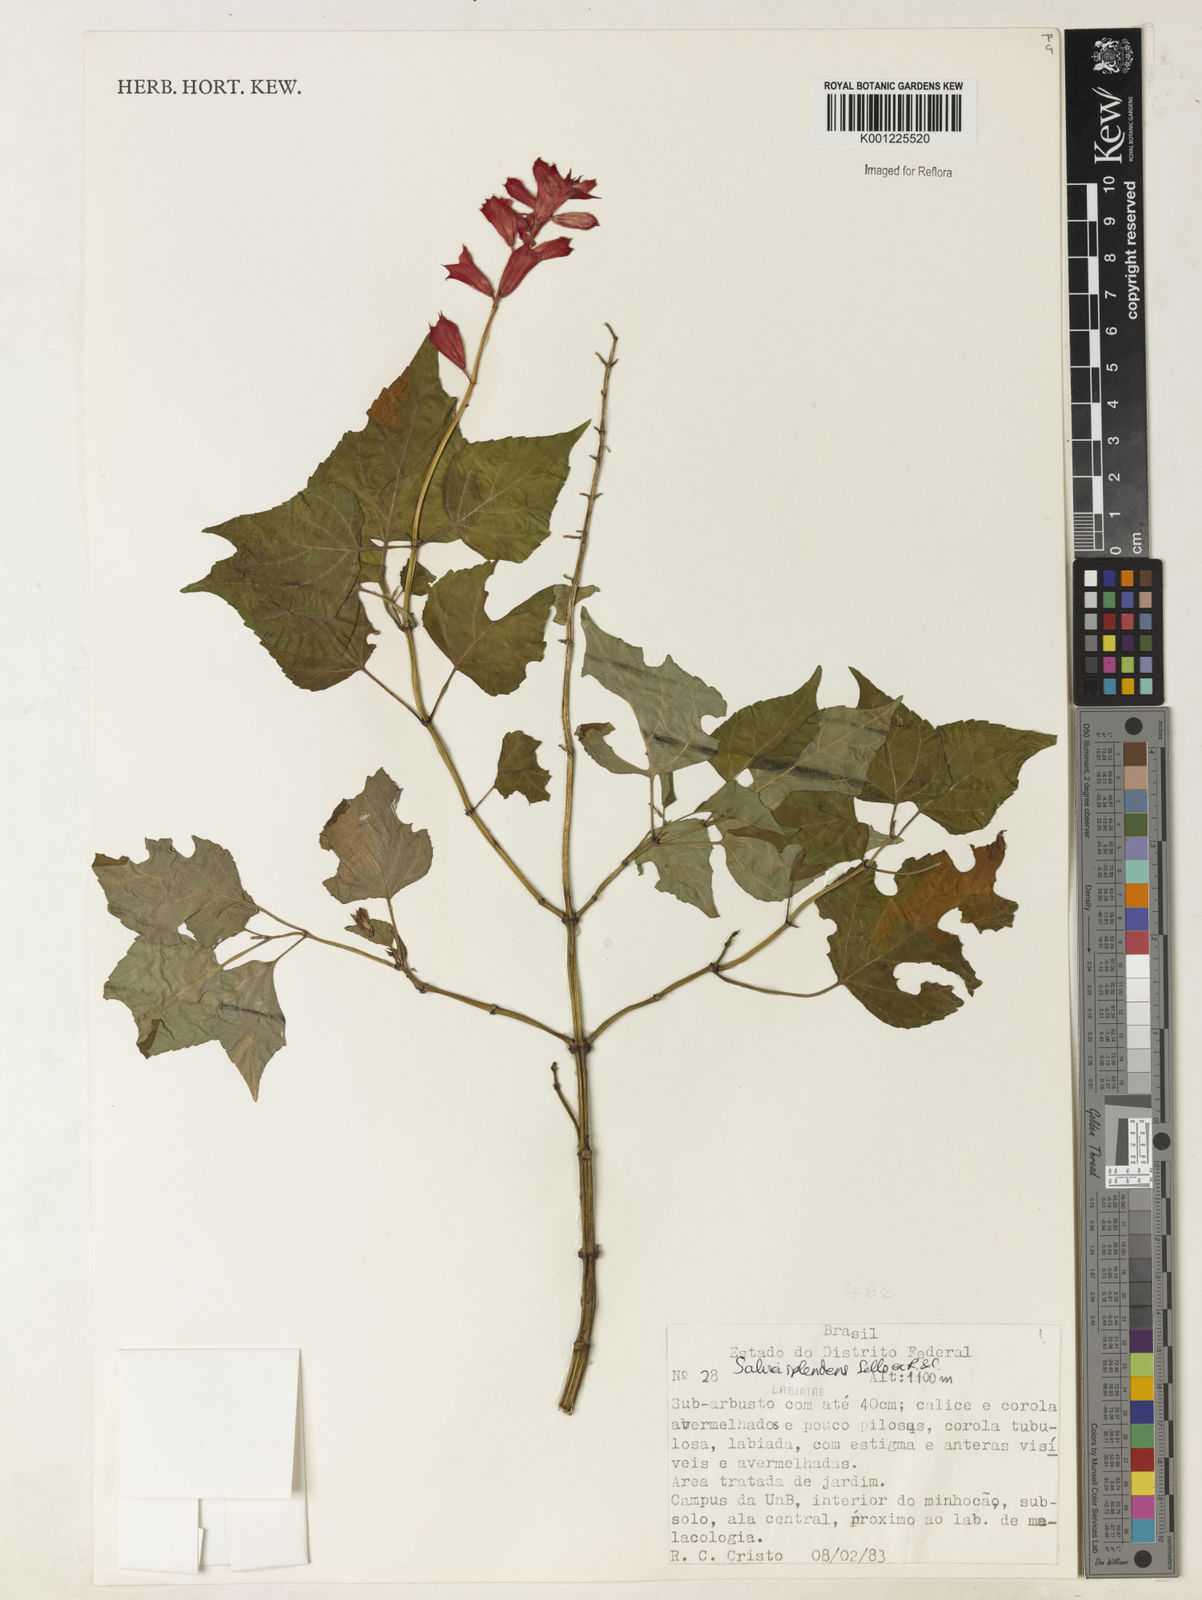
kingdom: Plantae
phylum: Tracheophyta
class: Magnoliopsida
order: Lamiales
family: Lamiaceae
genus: Salvia
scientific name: Salvia
